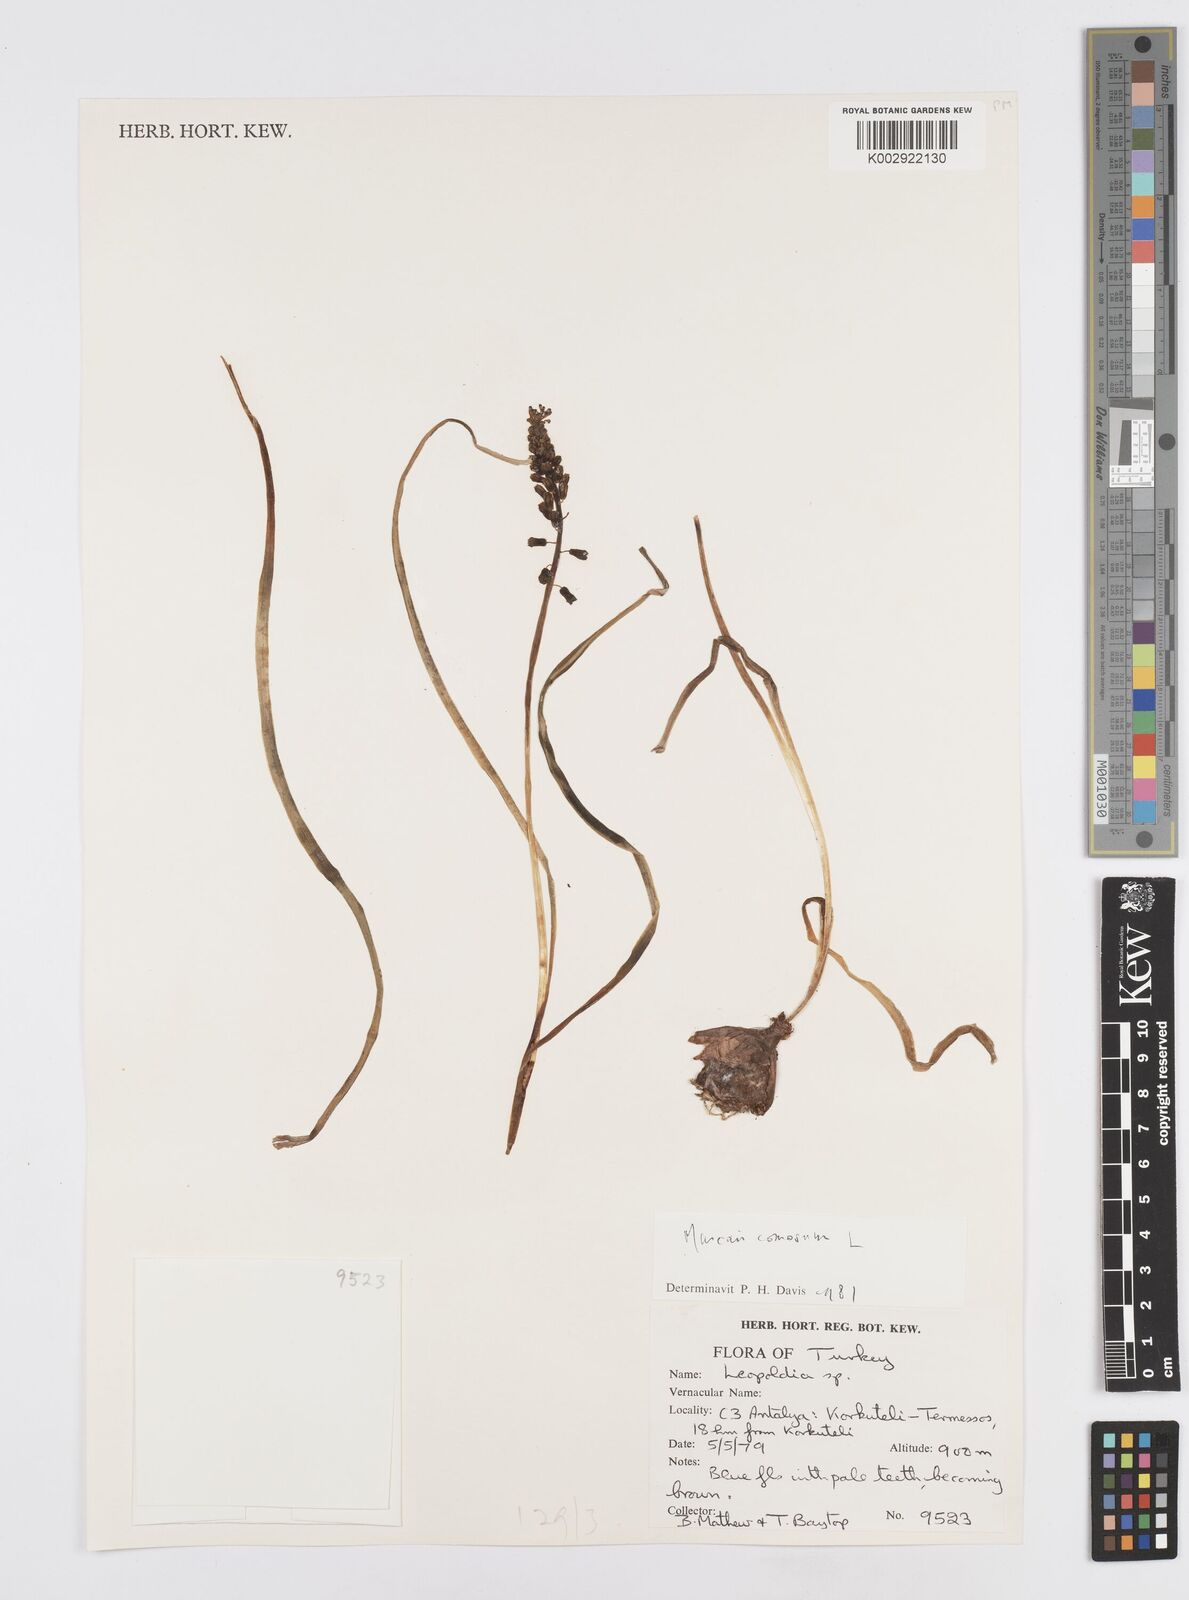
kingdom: Plantae
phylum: Tracheophyta
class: Liliopsida
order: Asparagales
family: Asparagaceae
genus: Muscari
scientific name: Muscari comosum
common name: Tassel hyacinth
